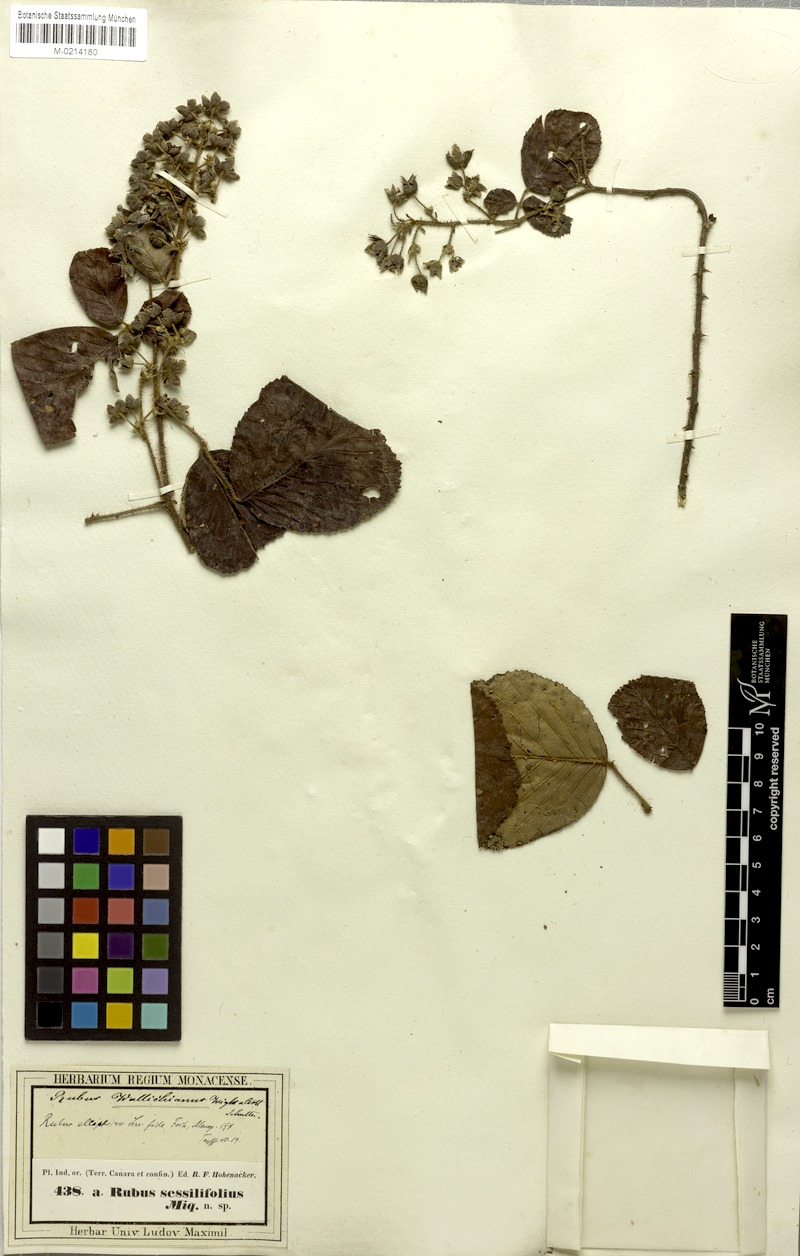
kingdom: Plantae
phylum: Tracheophyta
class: Magnoliopsida
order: Rosales
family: Rosaceae
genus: Rubus
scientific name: Rubus ellipticus
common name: Cheeseberry
